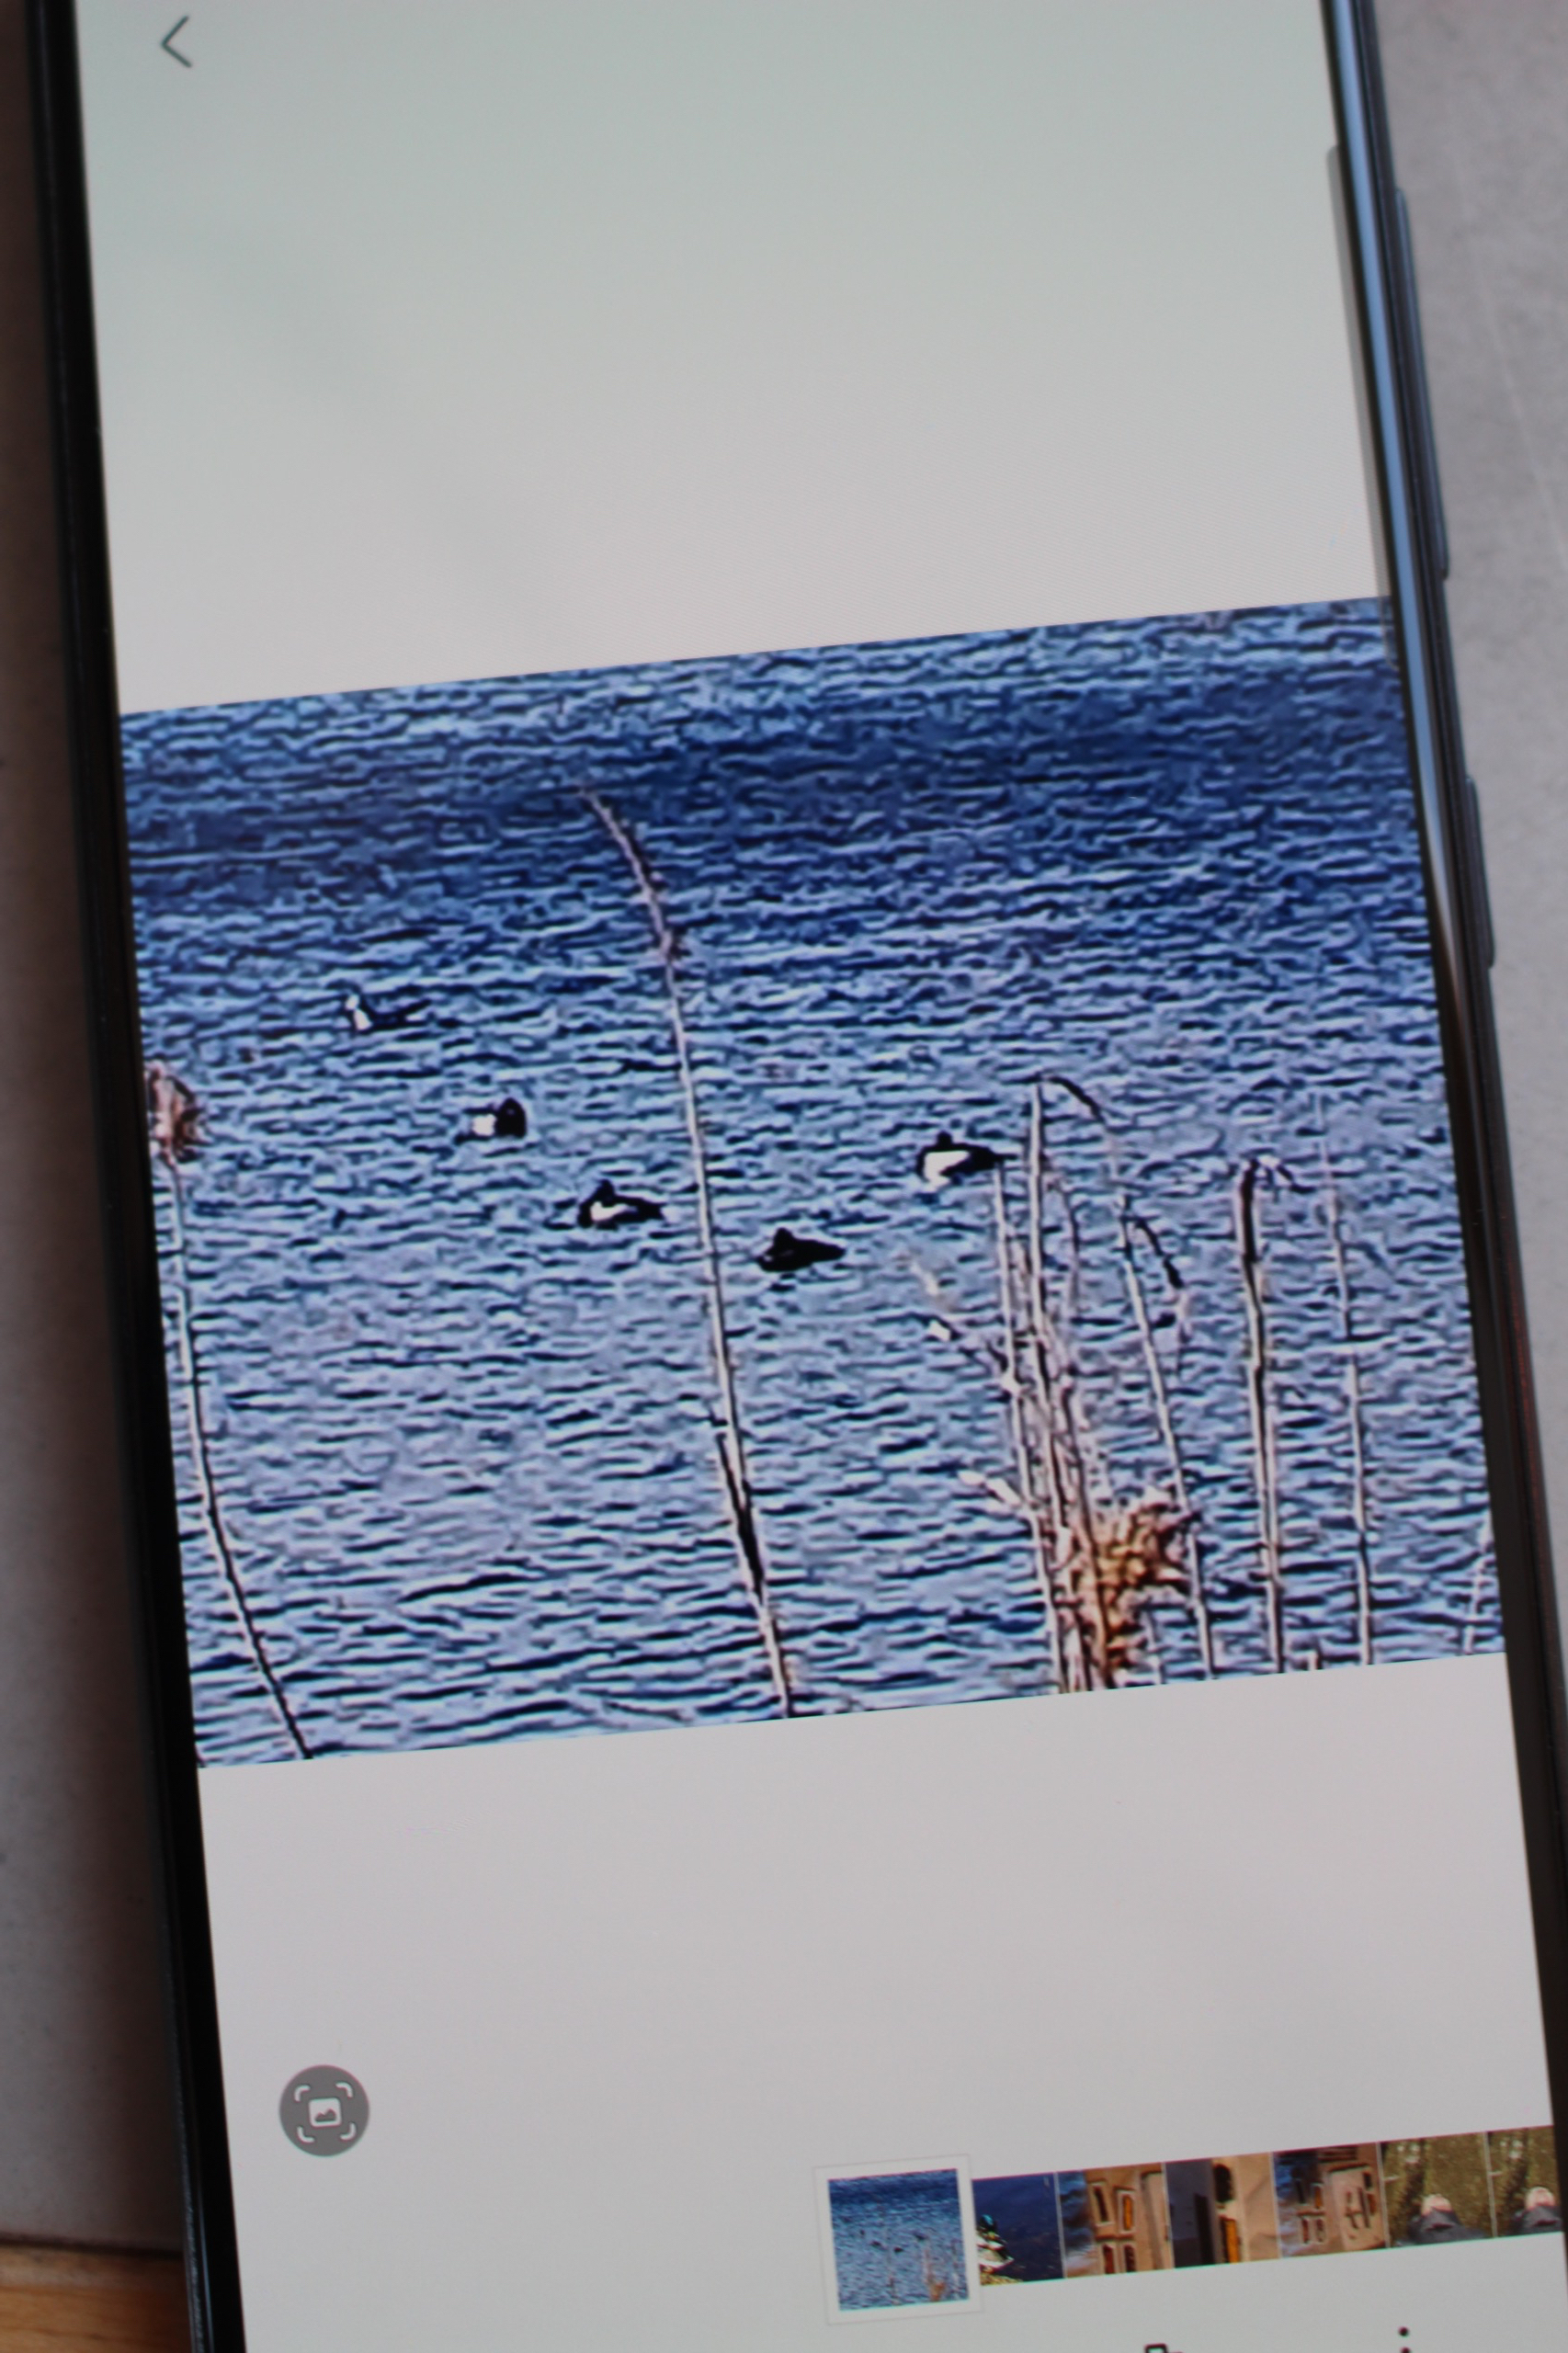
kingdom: Animalia
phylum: Chordata
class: Aves
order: Anseriformes
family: Anatidae
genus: Aythya
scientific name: Aythya fuligula
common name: Troldand
